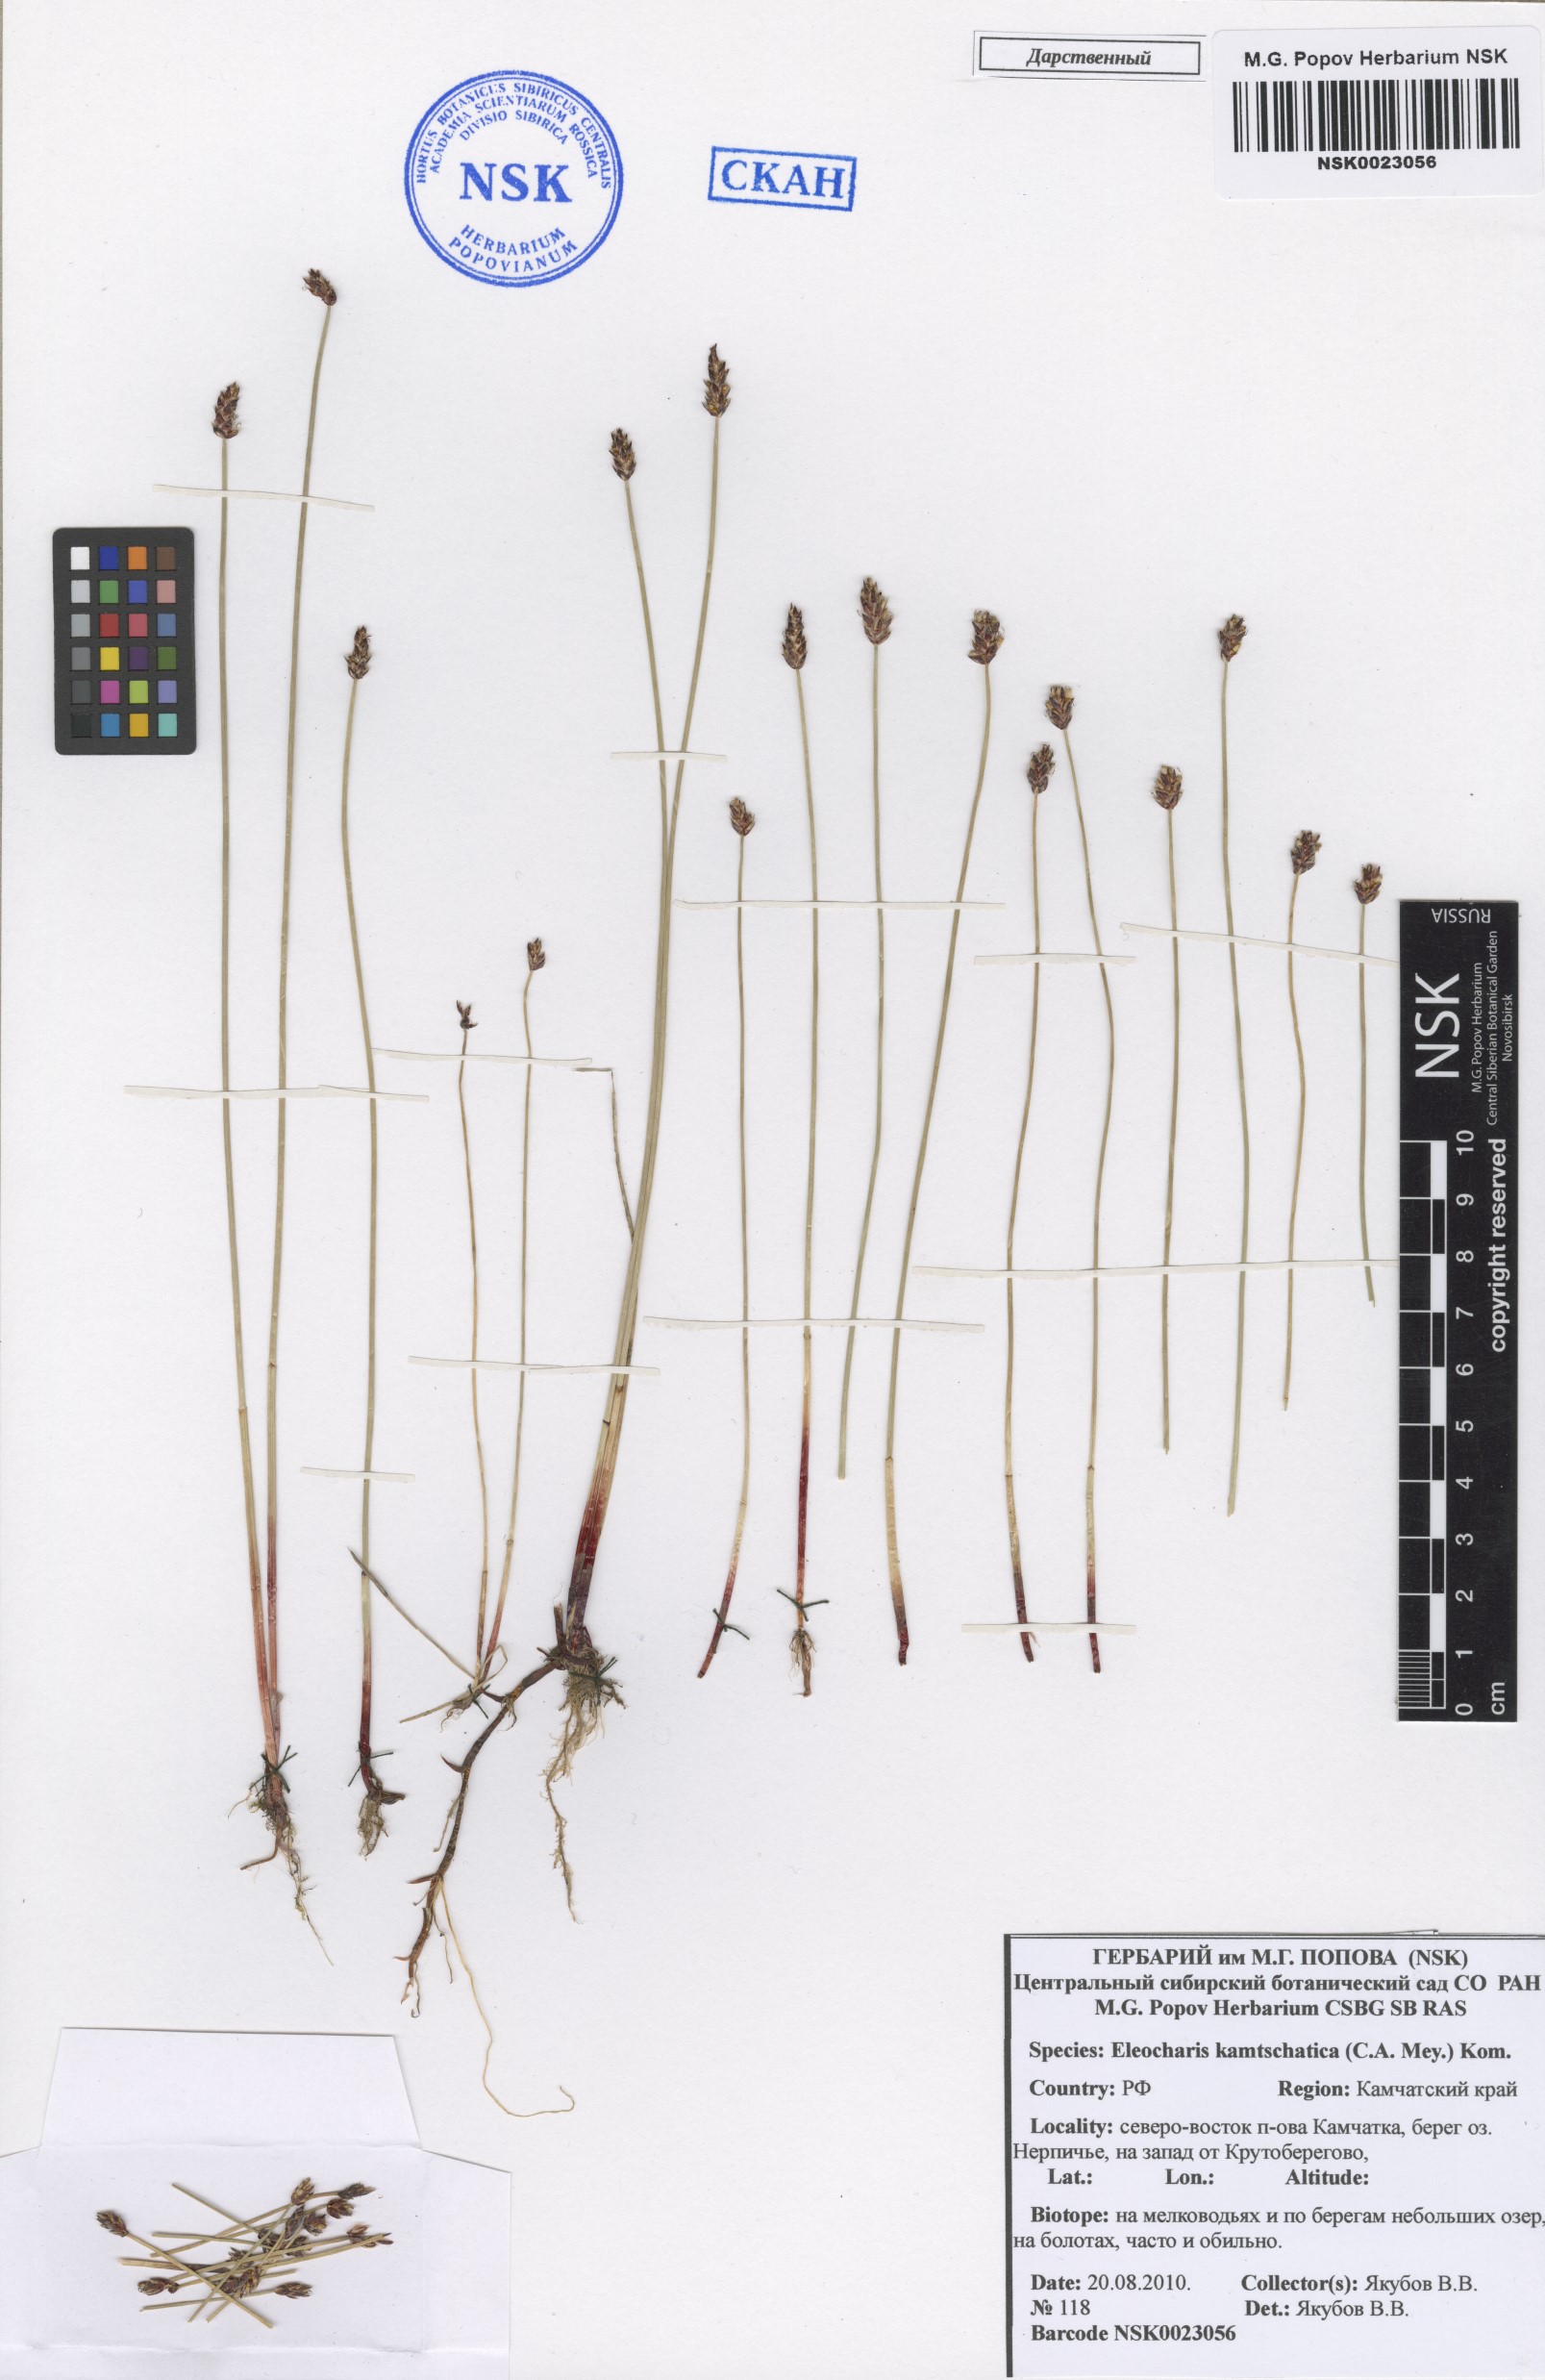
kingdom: Plantae
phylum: Tracheophyta
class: Liliopsida
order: Poales
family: Cyperaceae
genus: Eleocharis
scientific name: Eleocharis kamtschatica
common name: Kamchatka spikerush
